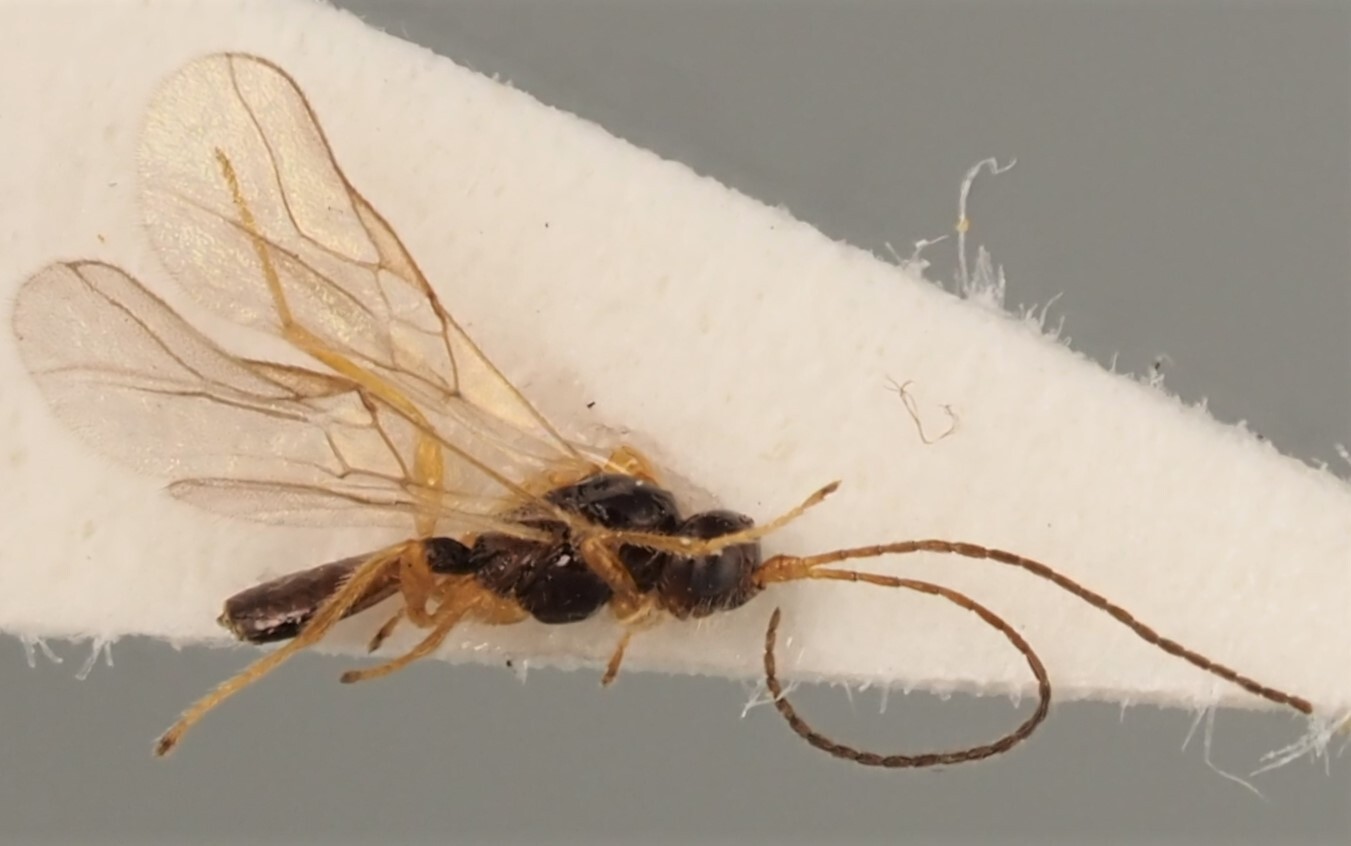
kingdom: Animalia
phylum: Arthropoda
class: Insecta
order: Hymenoptera
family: Braconidae
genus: Opius
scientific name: Opius crassicrus
